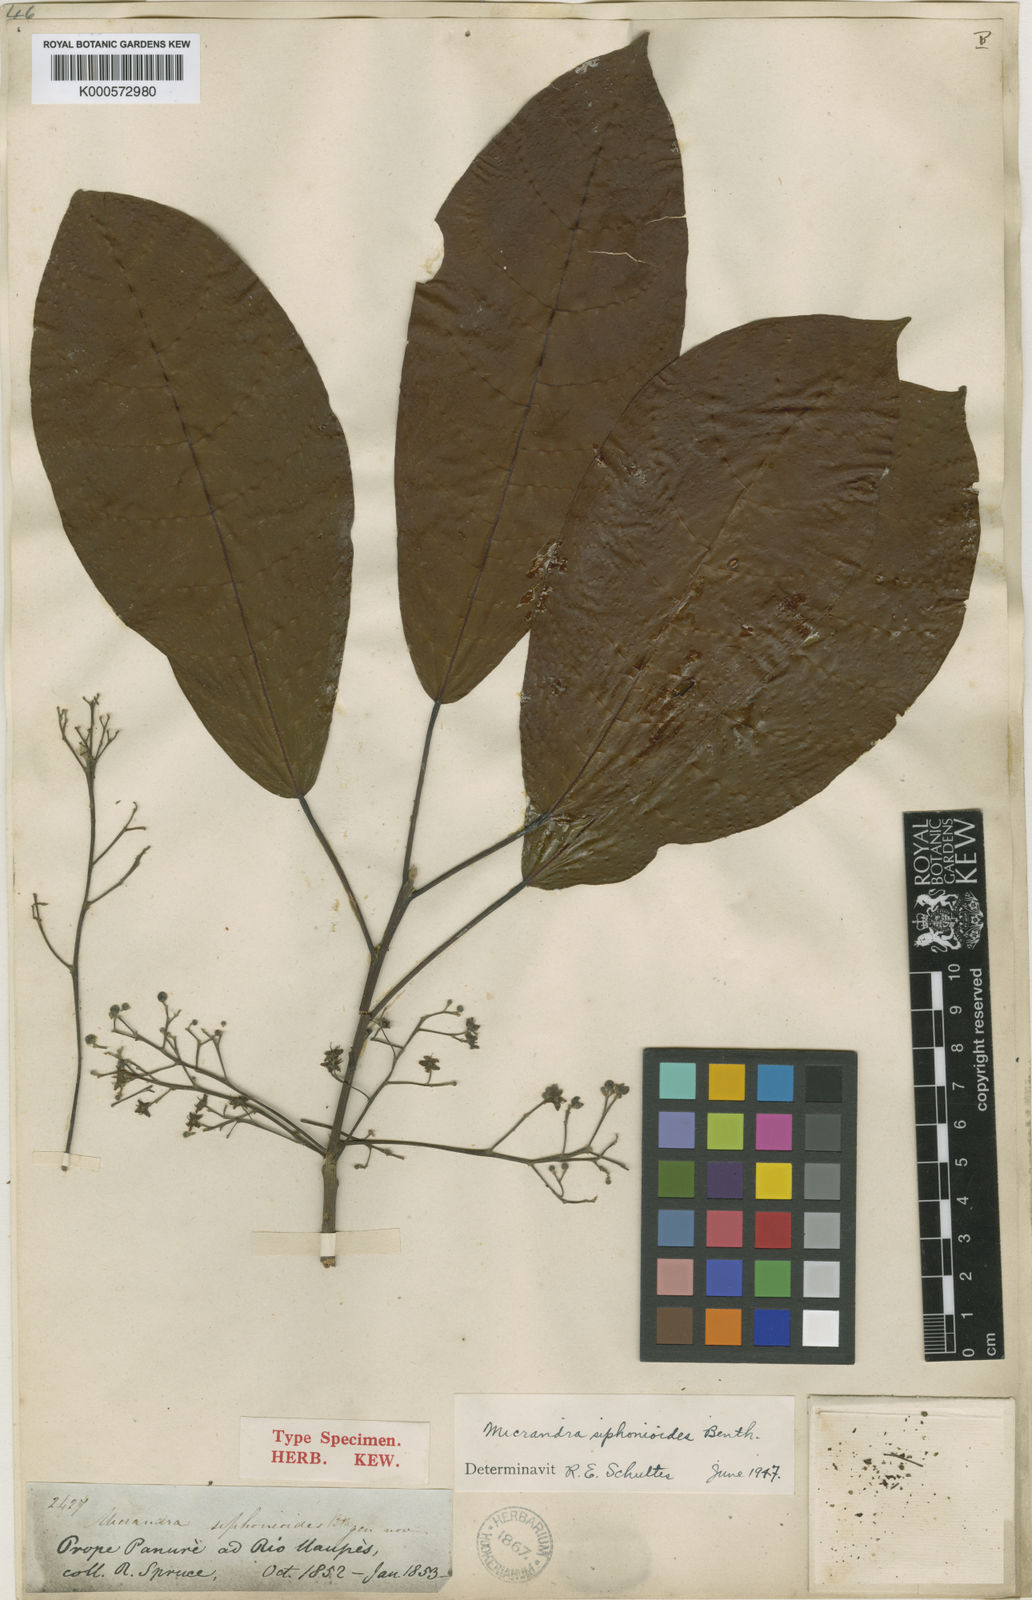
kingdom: Plantae
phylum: Tracheophyta
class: Magnoliopsida
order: Malpighiales
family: Euphorbiaceae
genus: Micrandra
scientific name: Micrandra siphonioides
